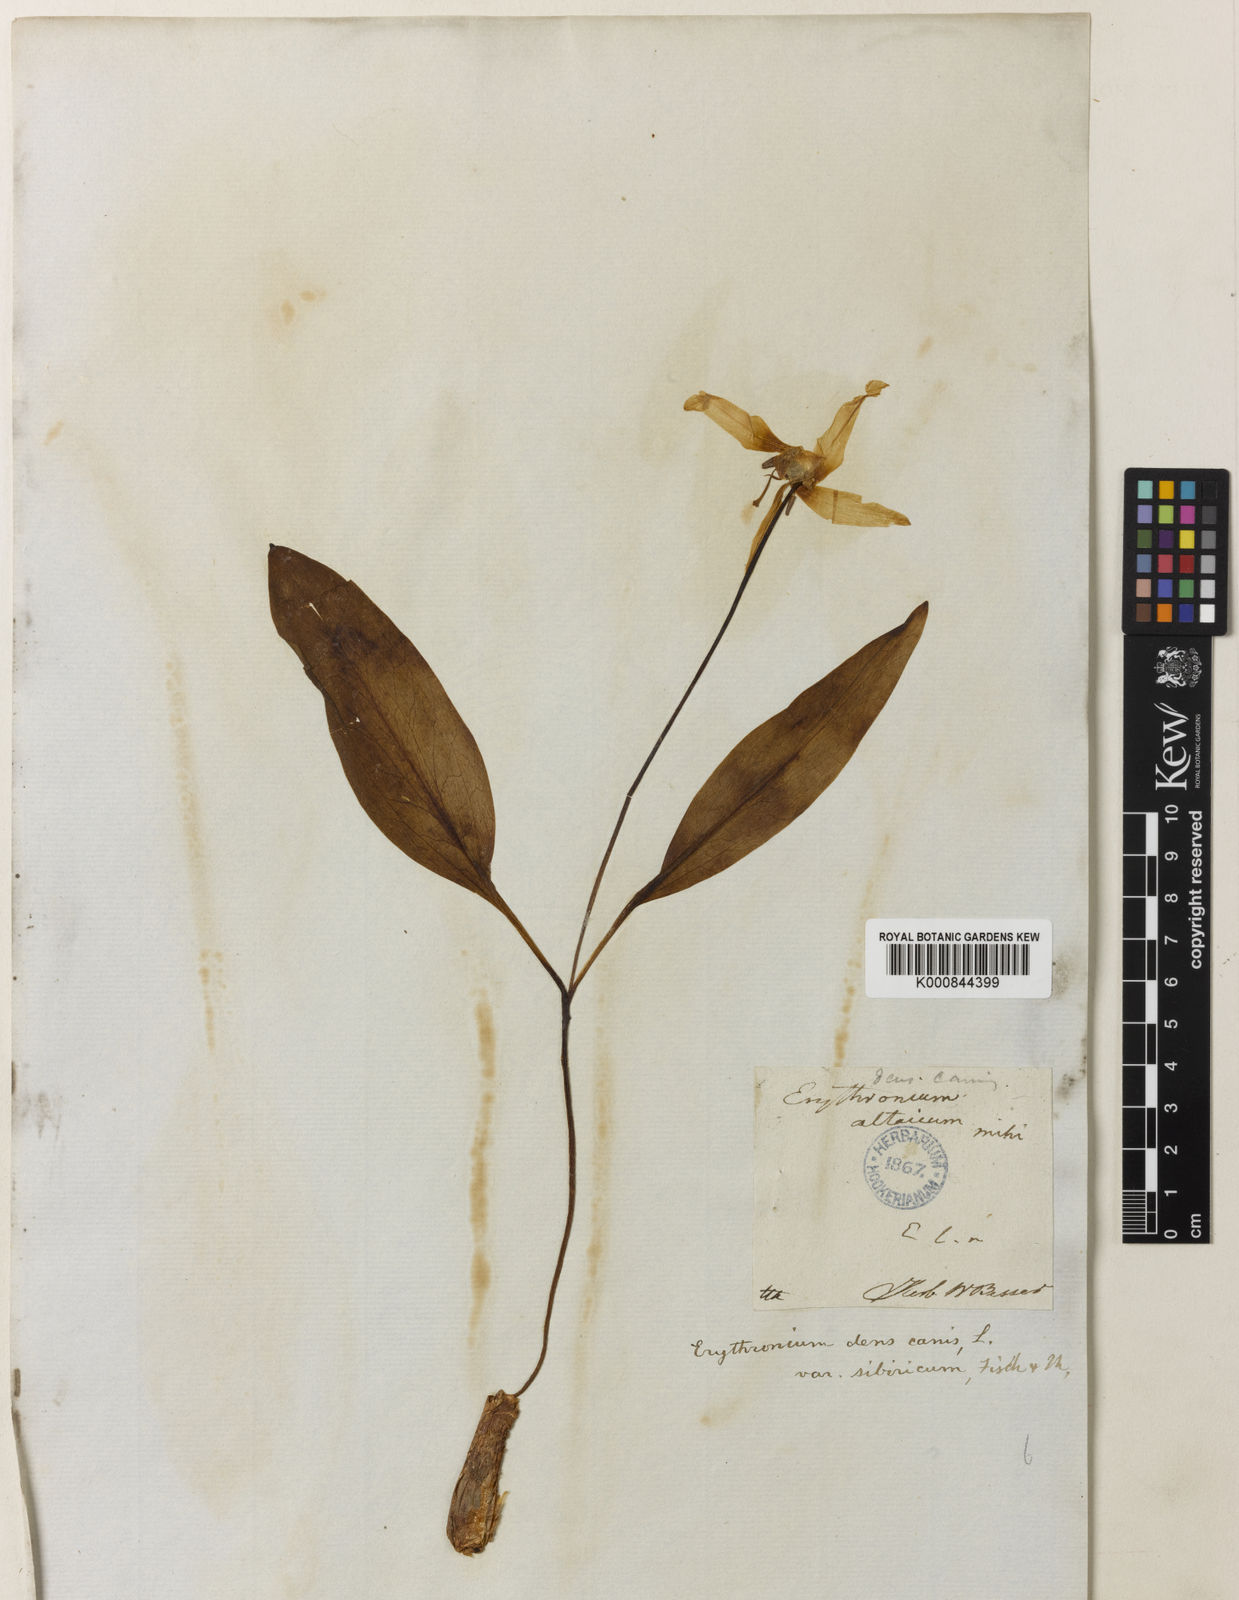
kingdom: Plantae
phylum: Tracheophyta
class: Liliopsida
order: Liliales
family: Liliaceae
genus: Erythronium
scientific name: Erythronium dens-canis
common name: Dog's-tooth-violet
